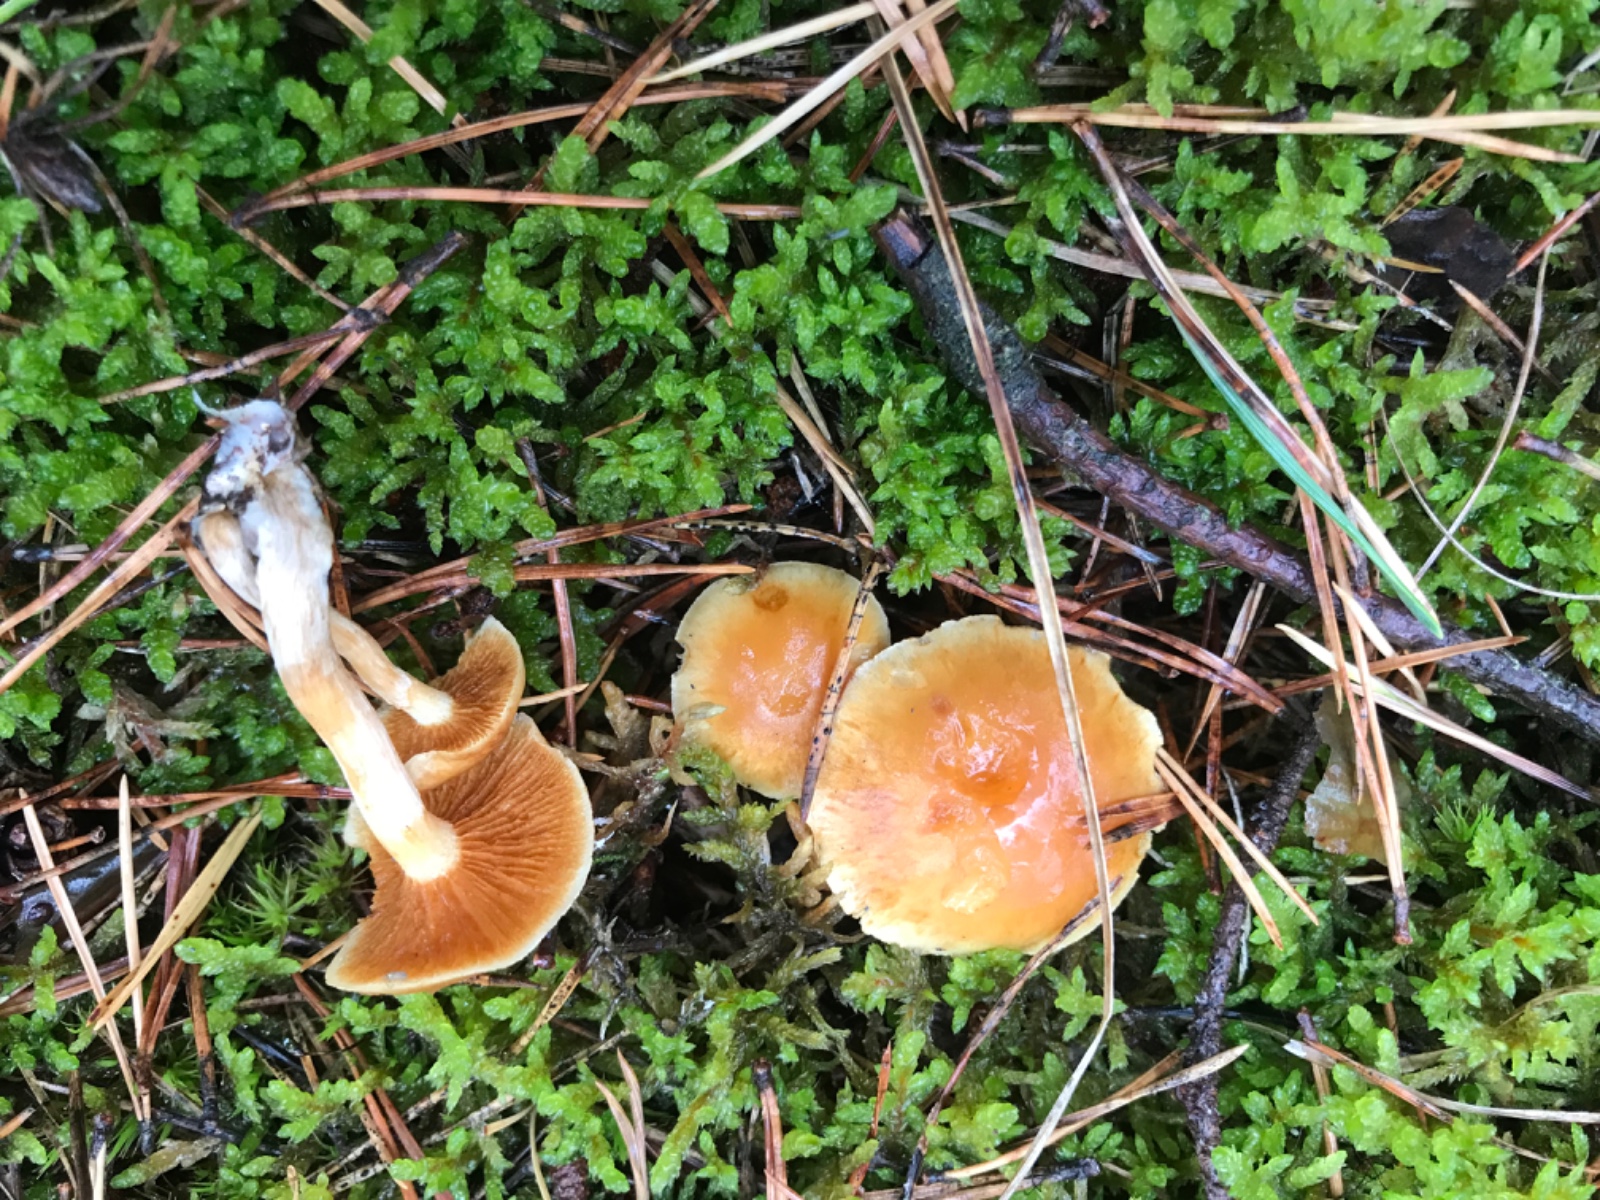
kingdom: Fungi
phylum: Basidiomycota
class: Agaricomycetes
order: Agaricales
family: Hymenogastraceae
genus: Gymnopilus
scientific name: Gymnopilus penetrans
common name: plettet flammehat
